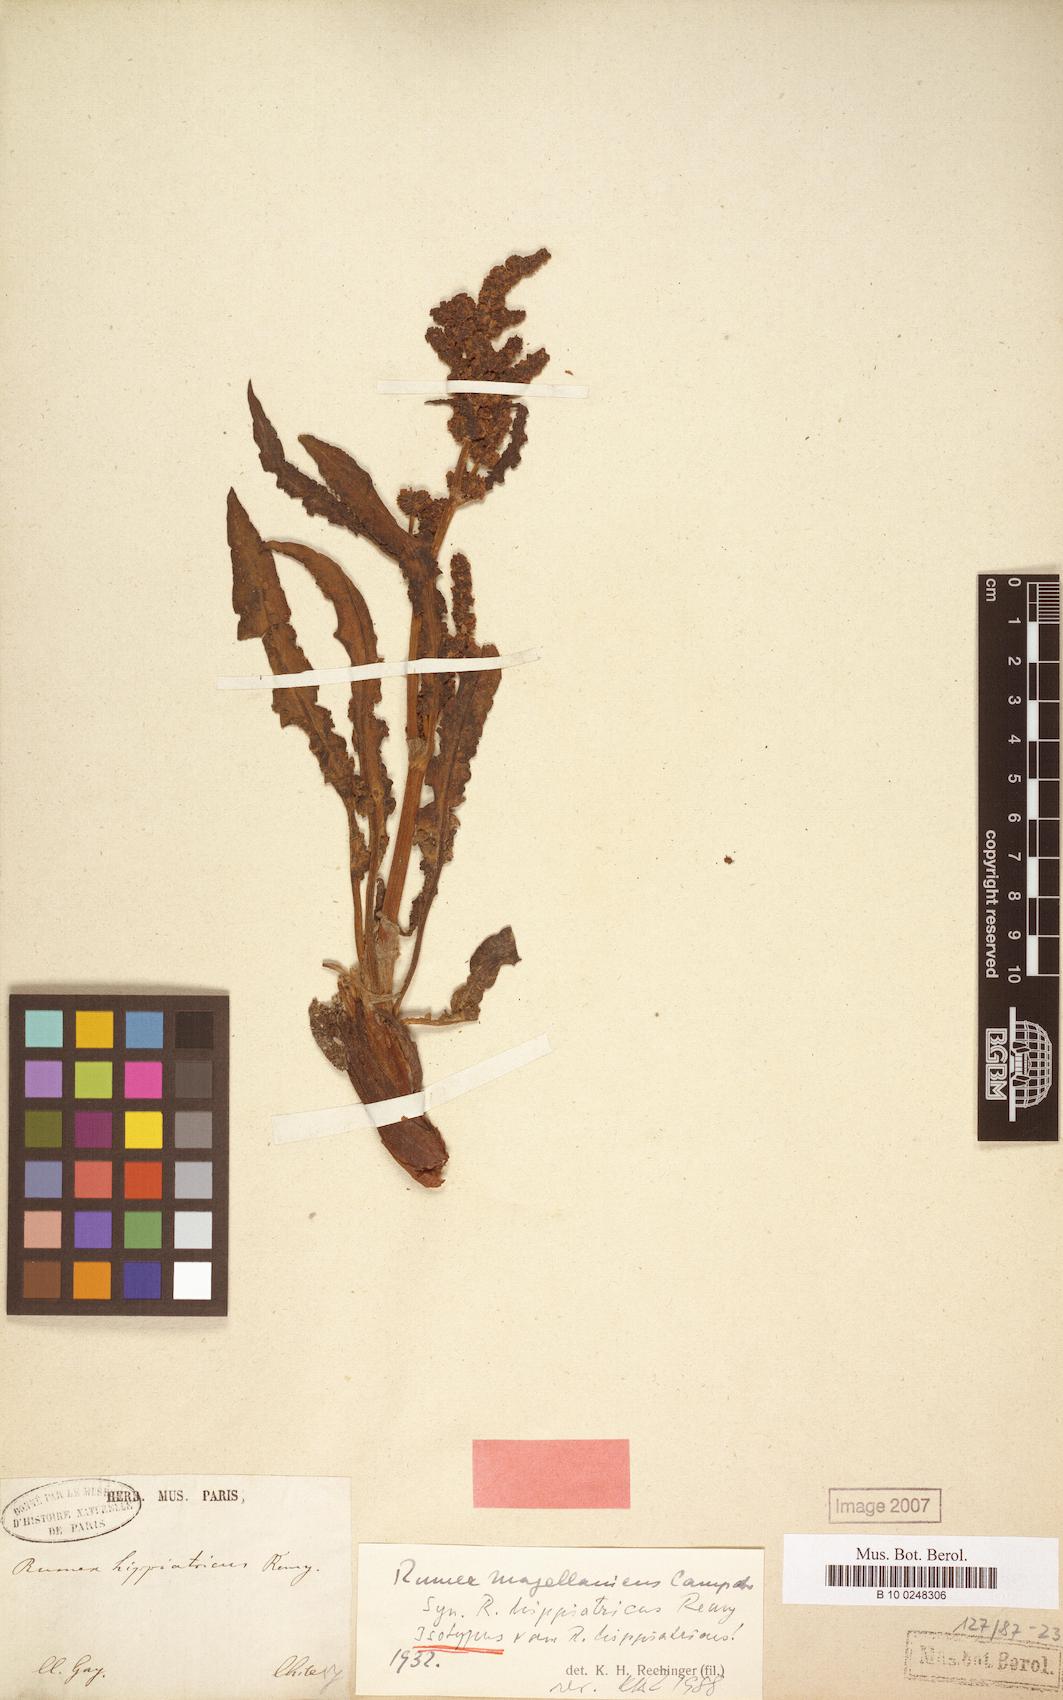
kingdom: Plantae
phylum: Tracheophyta
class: Magnoliopsida
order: Caryophyllales
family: Polygonaceae
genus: Rumex
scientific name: Rumex magellanicus
